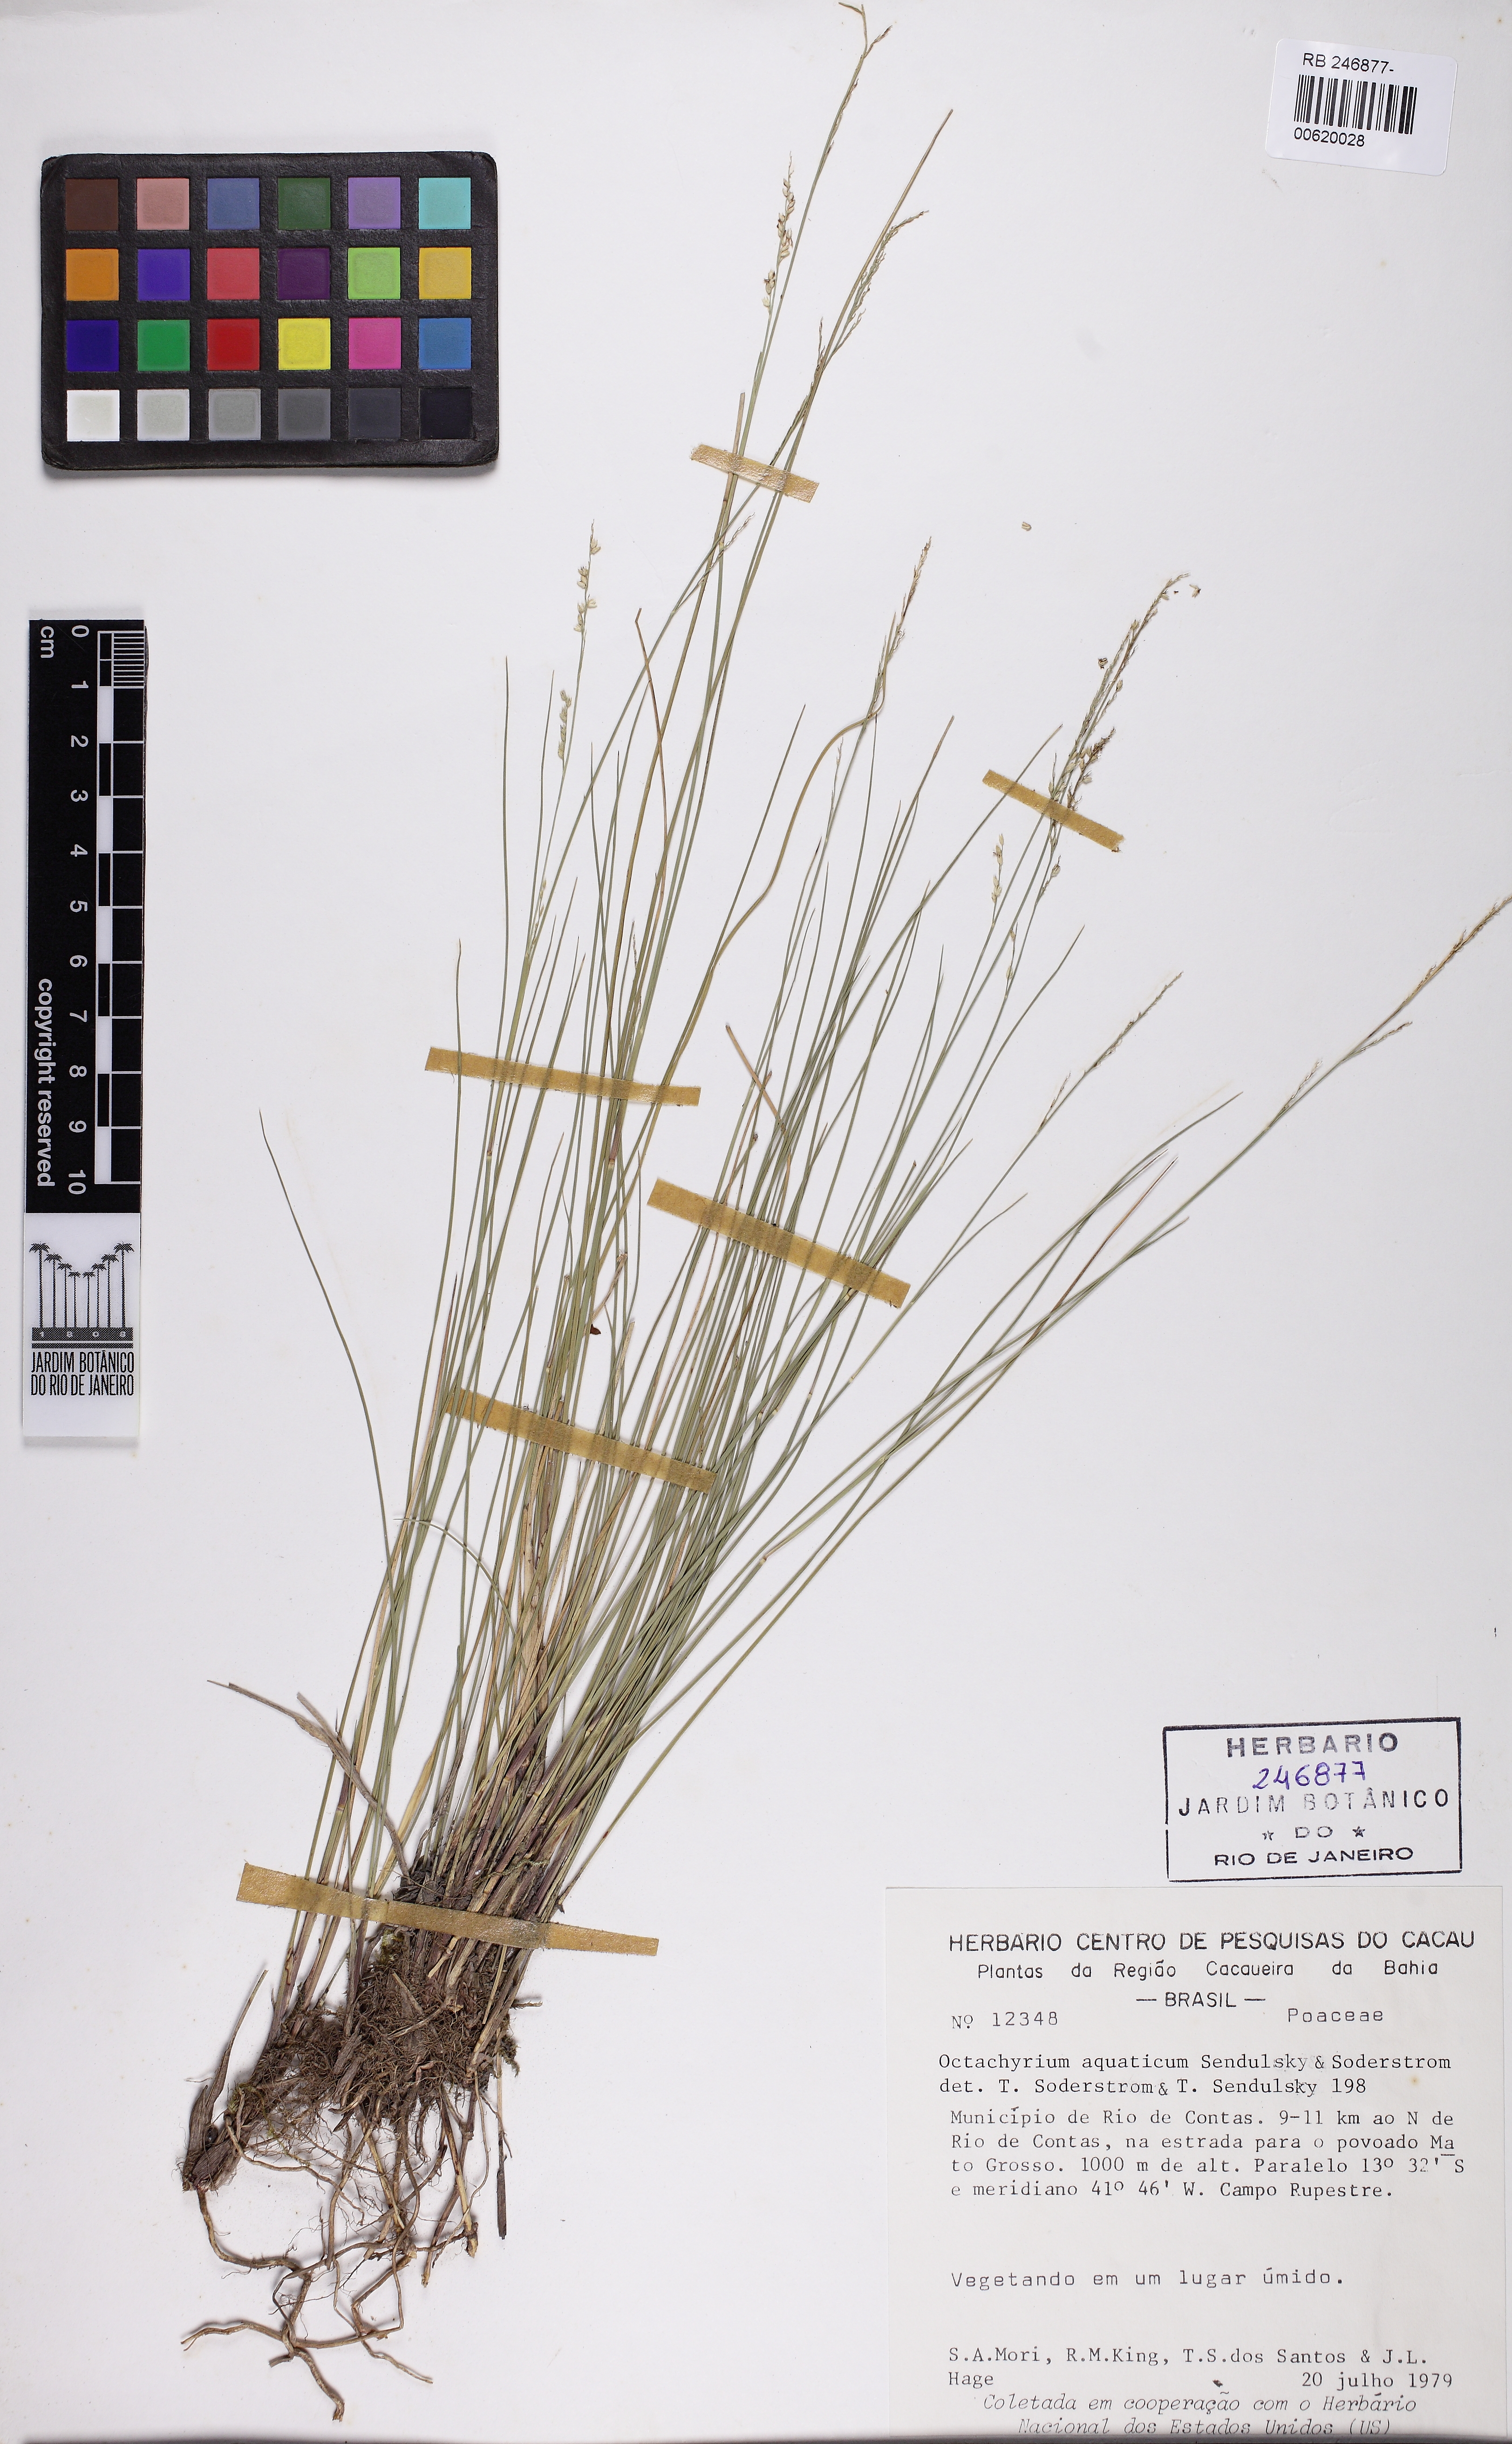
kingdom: Plantae
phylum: Tracheophyta
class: Liliopsida
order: Poales
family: Poaceae
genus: Otachyrium
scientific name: Otachyrium aquaticum
